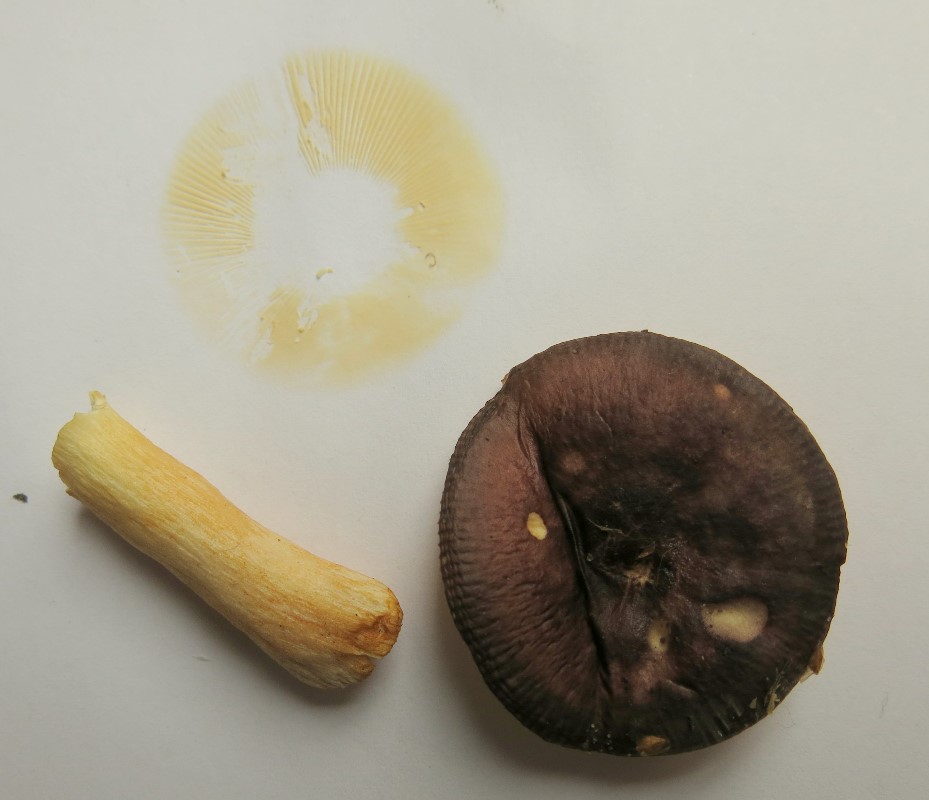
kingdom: Fungi
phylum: Basidiomycota
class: Agaricomycetes
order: Russulales
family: Russulaceae
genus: Russula
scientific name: Russula puellaris
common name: gulstokket skørhat
